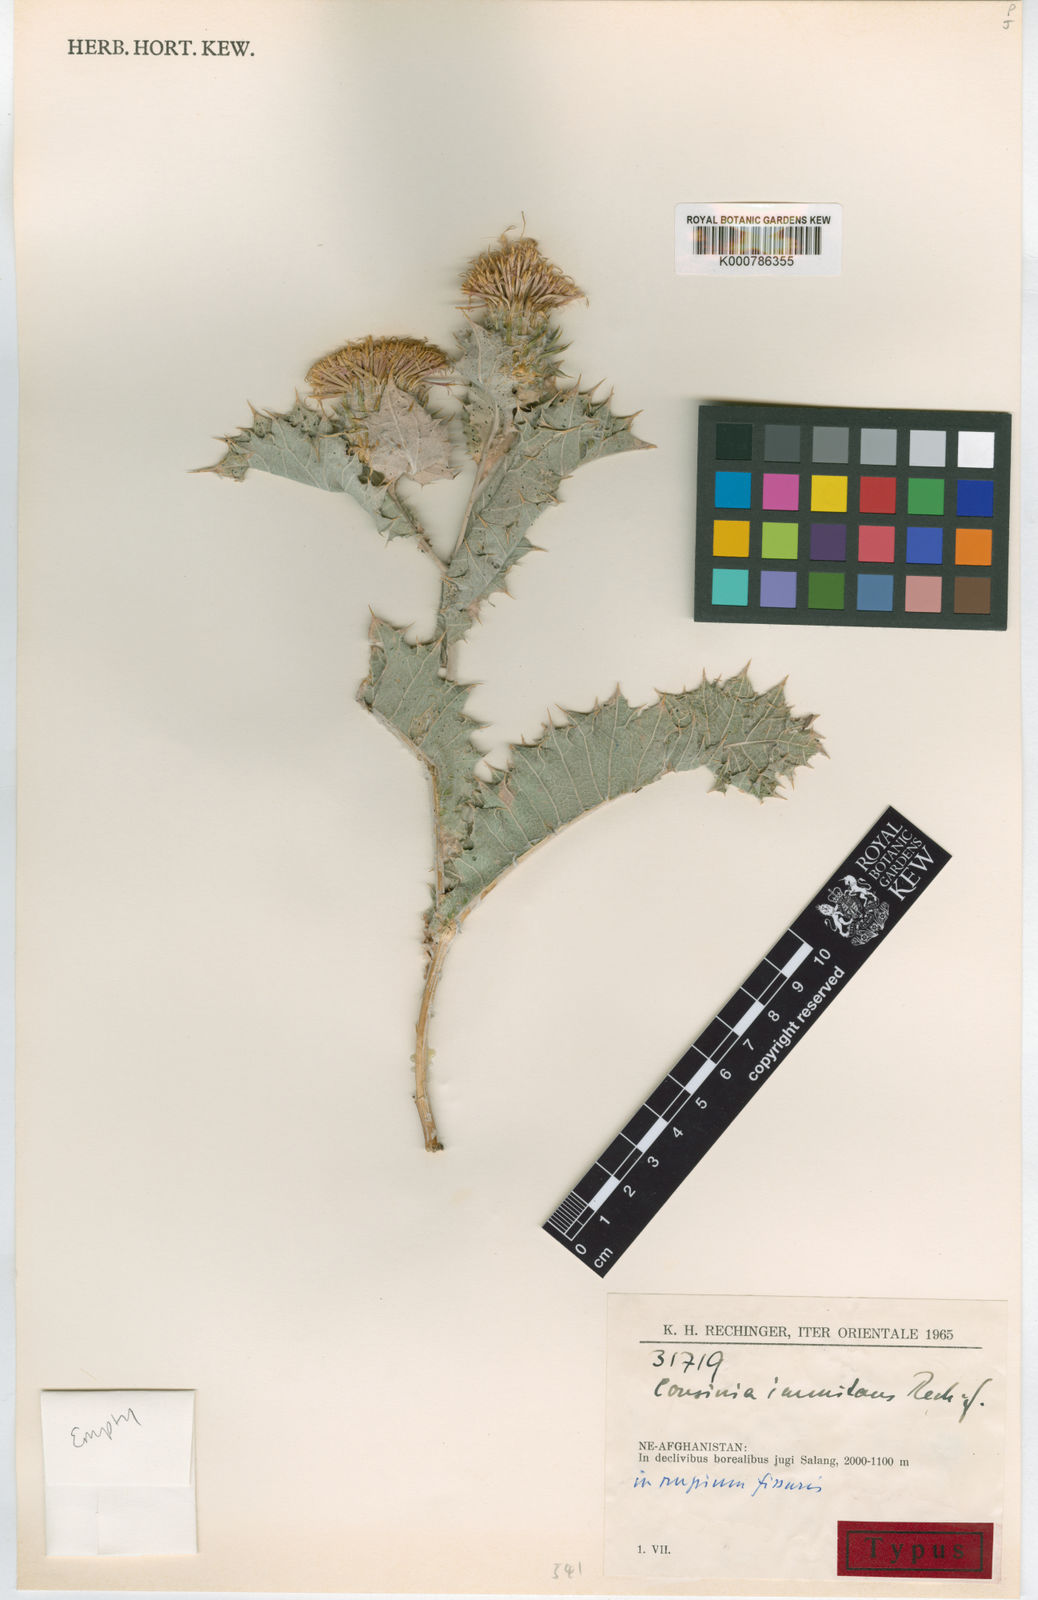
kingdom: Plantae
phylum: Tracheophyta
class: Magnoliopsida
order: Asterales
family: Asteraceae
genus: Cousinia
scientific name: Cousinia immitans
